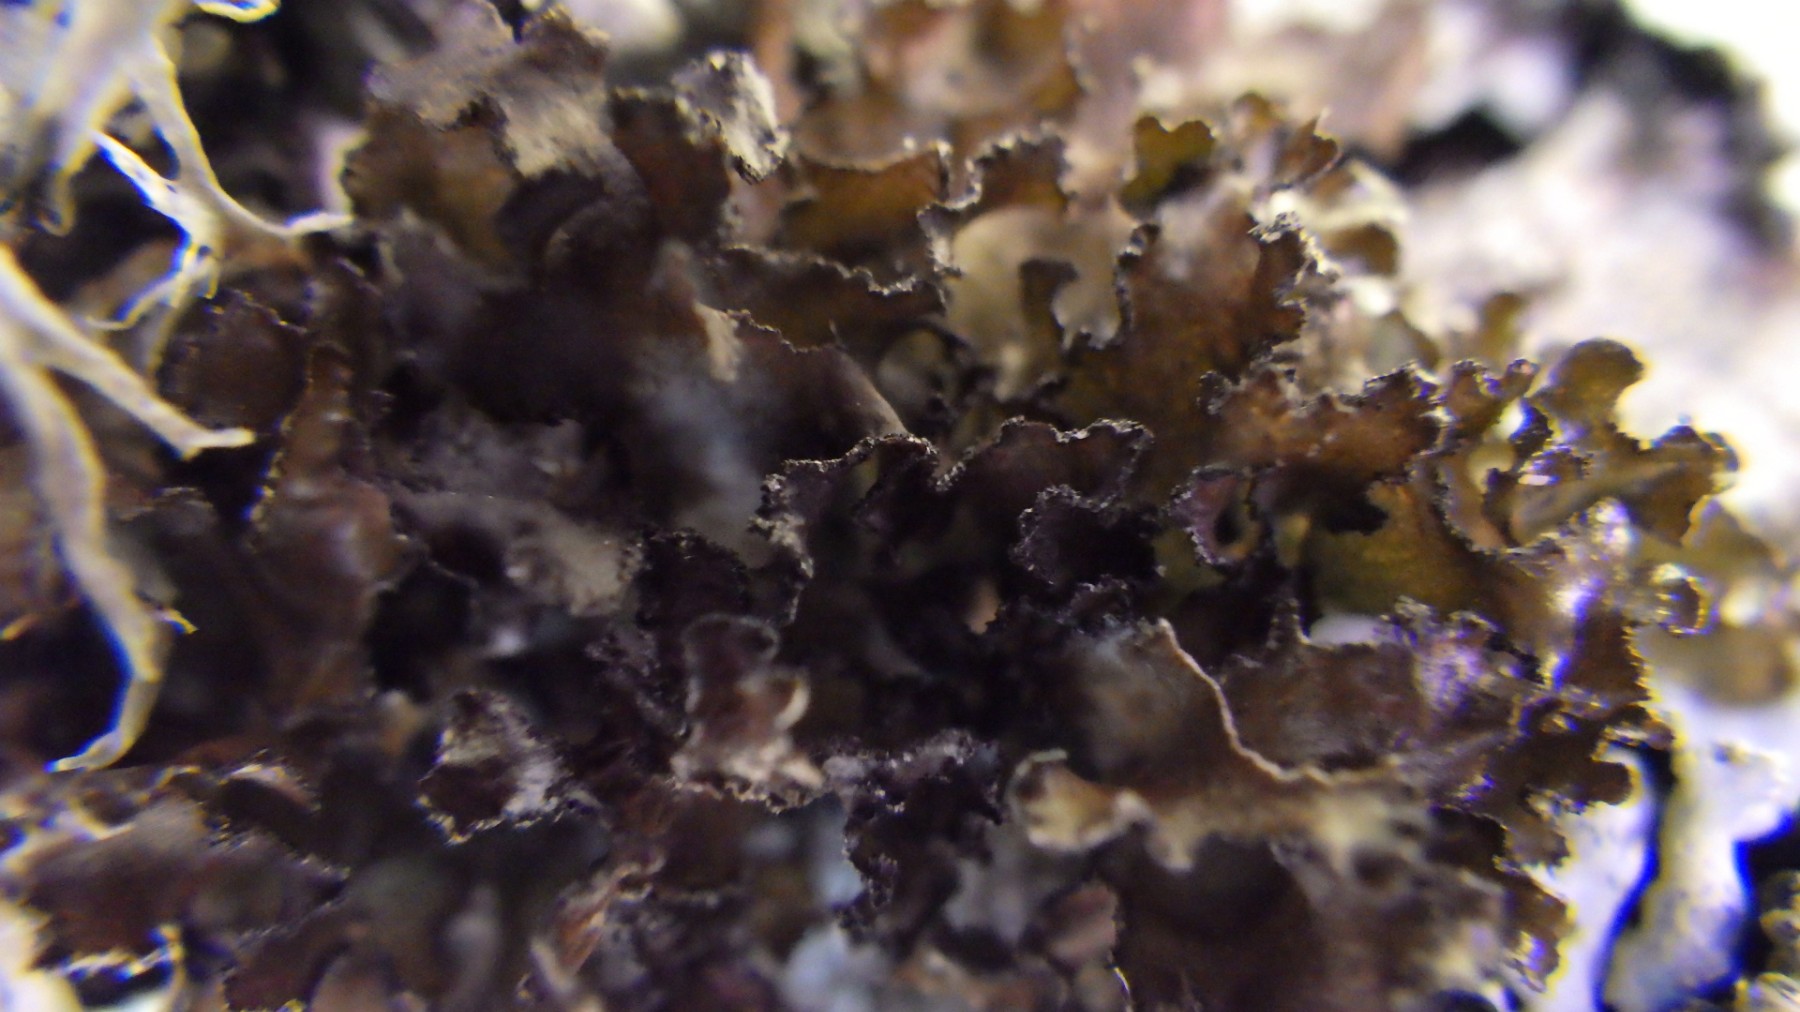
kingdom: Fungi
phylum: Ascomycota
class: Lecanoromycetes
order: Lecanorales
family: Parmeliaceae
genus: Nephromopsis
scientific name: Nephromopsis chlorophylla
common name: olivenbrun kruslav
